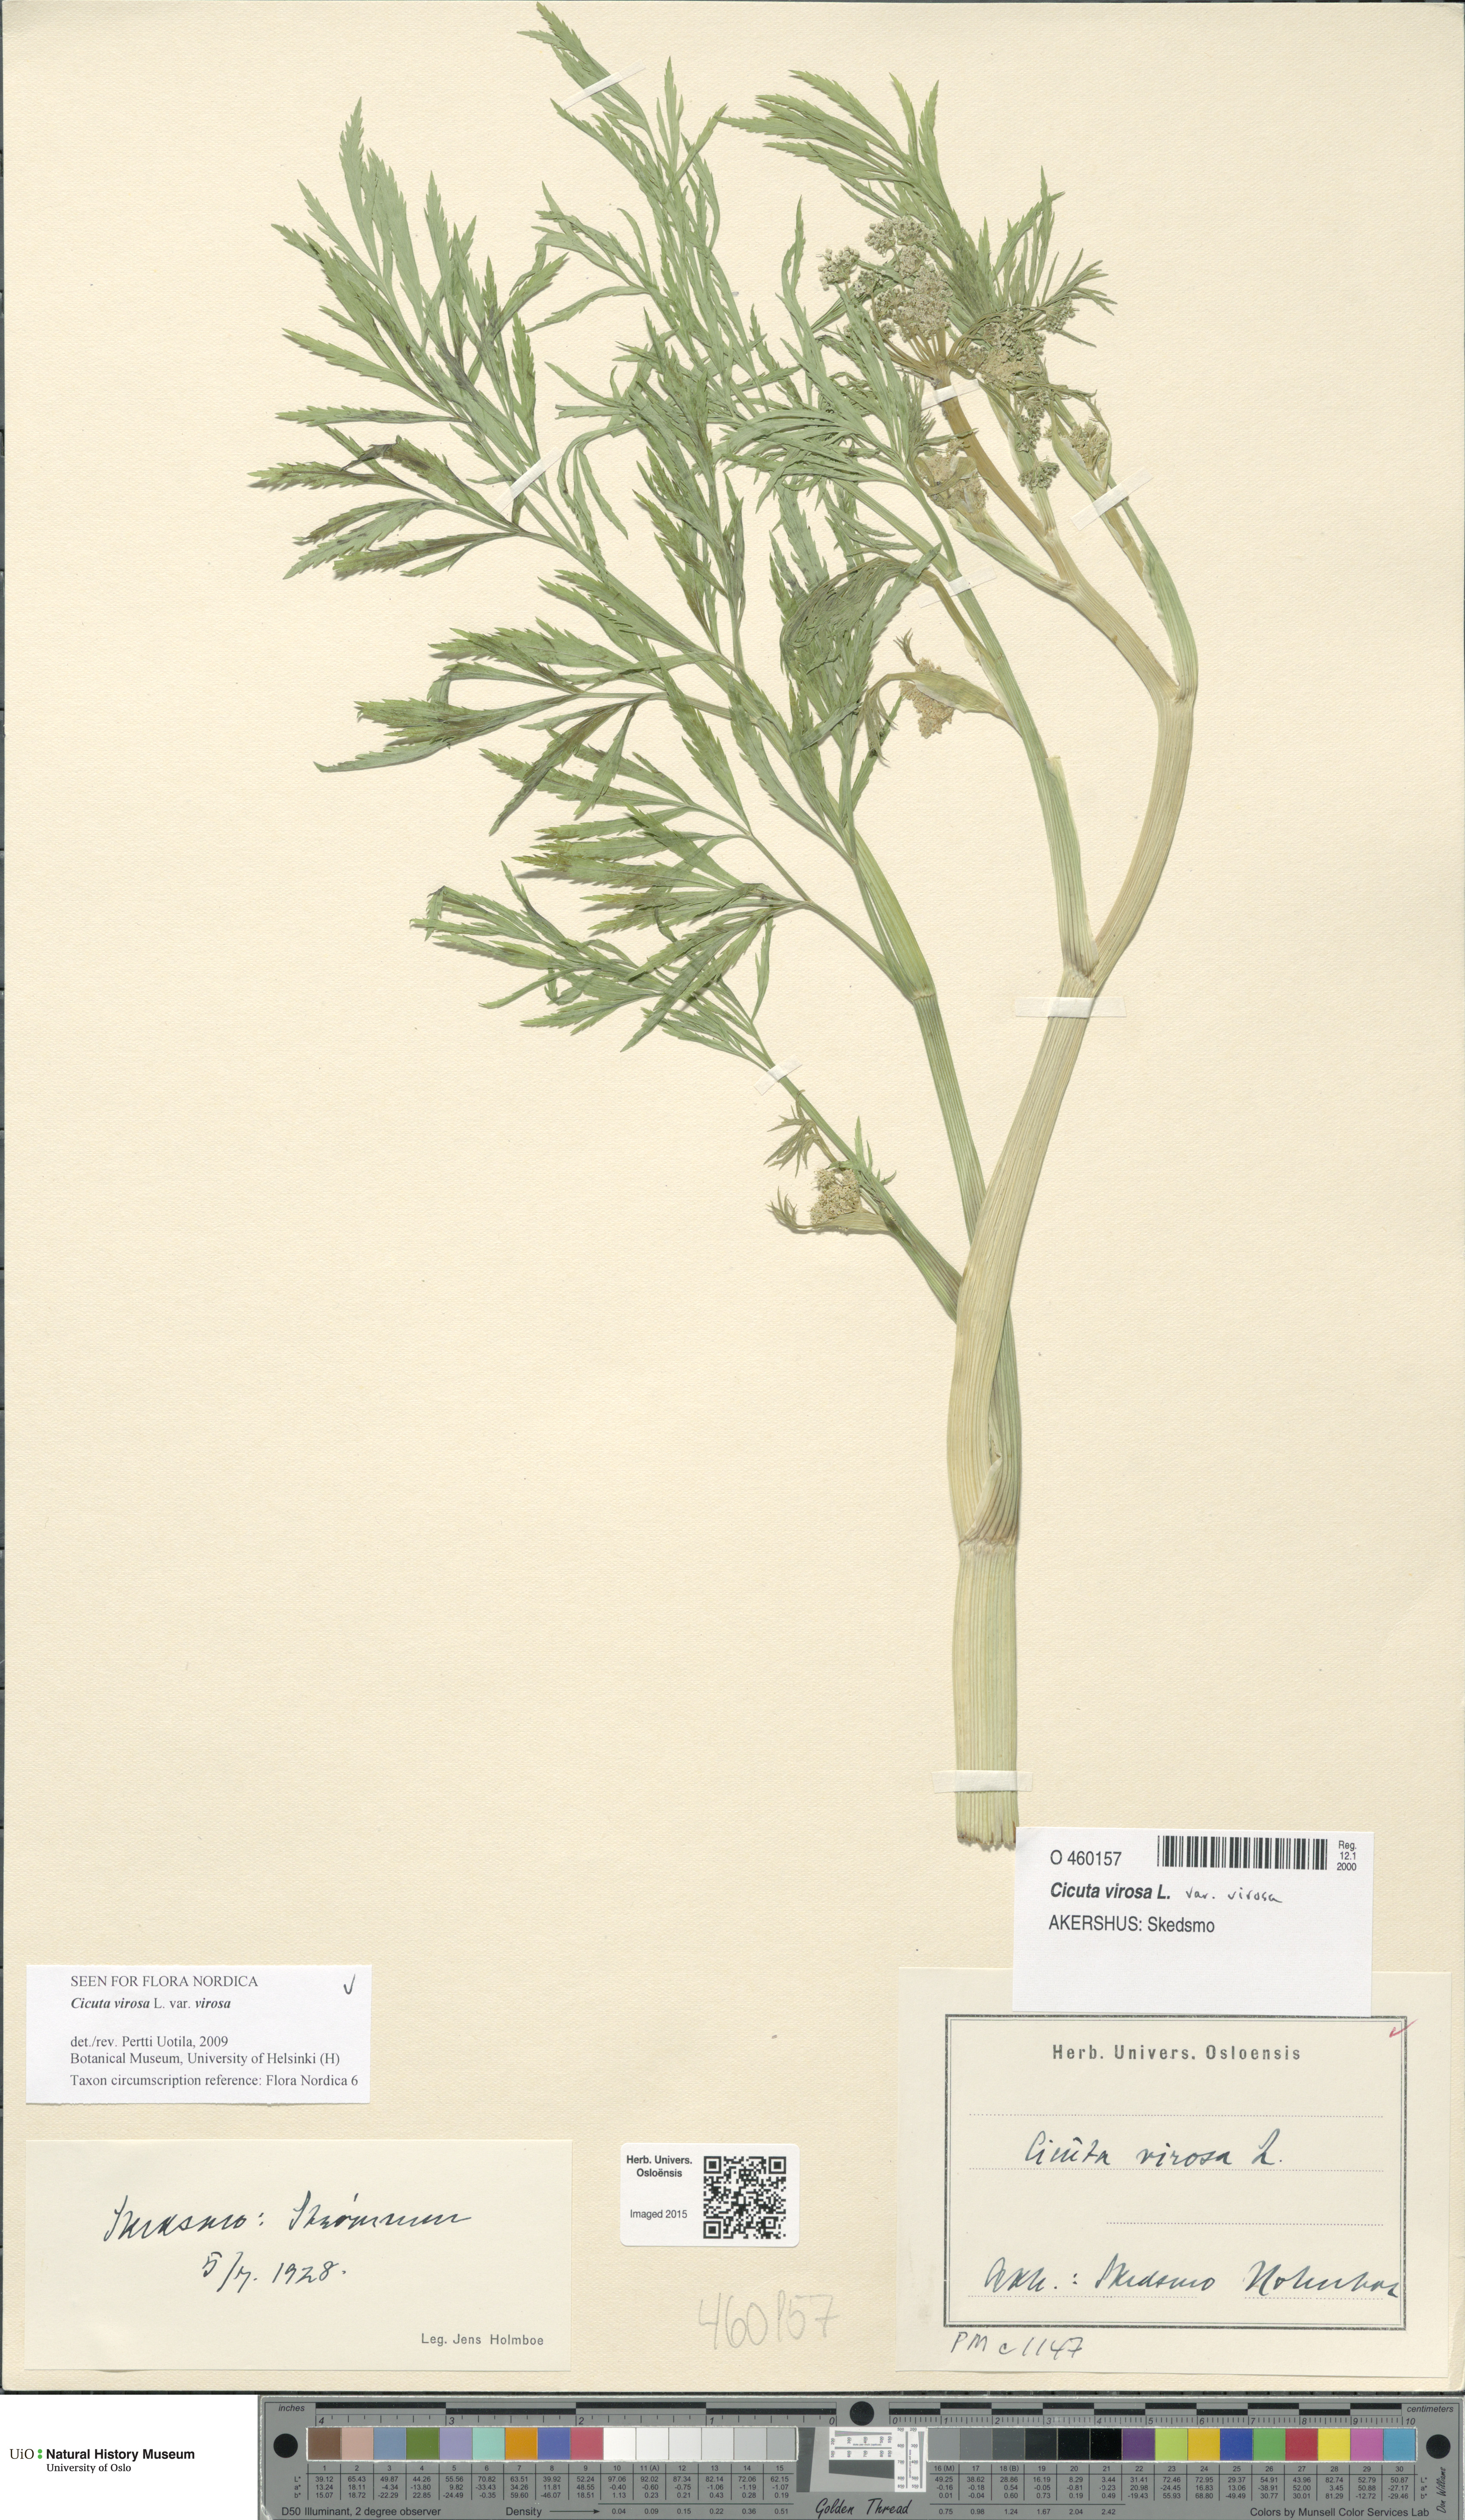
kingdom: Plantae
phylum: Tracheophyta
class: Magnoliopsida
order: Apiales
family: Apiaceae
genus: Cicuta
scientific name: Cicuta virosa
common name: Cowbane
